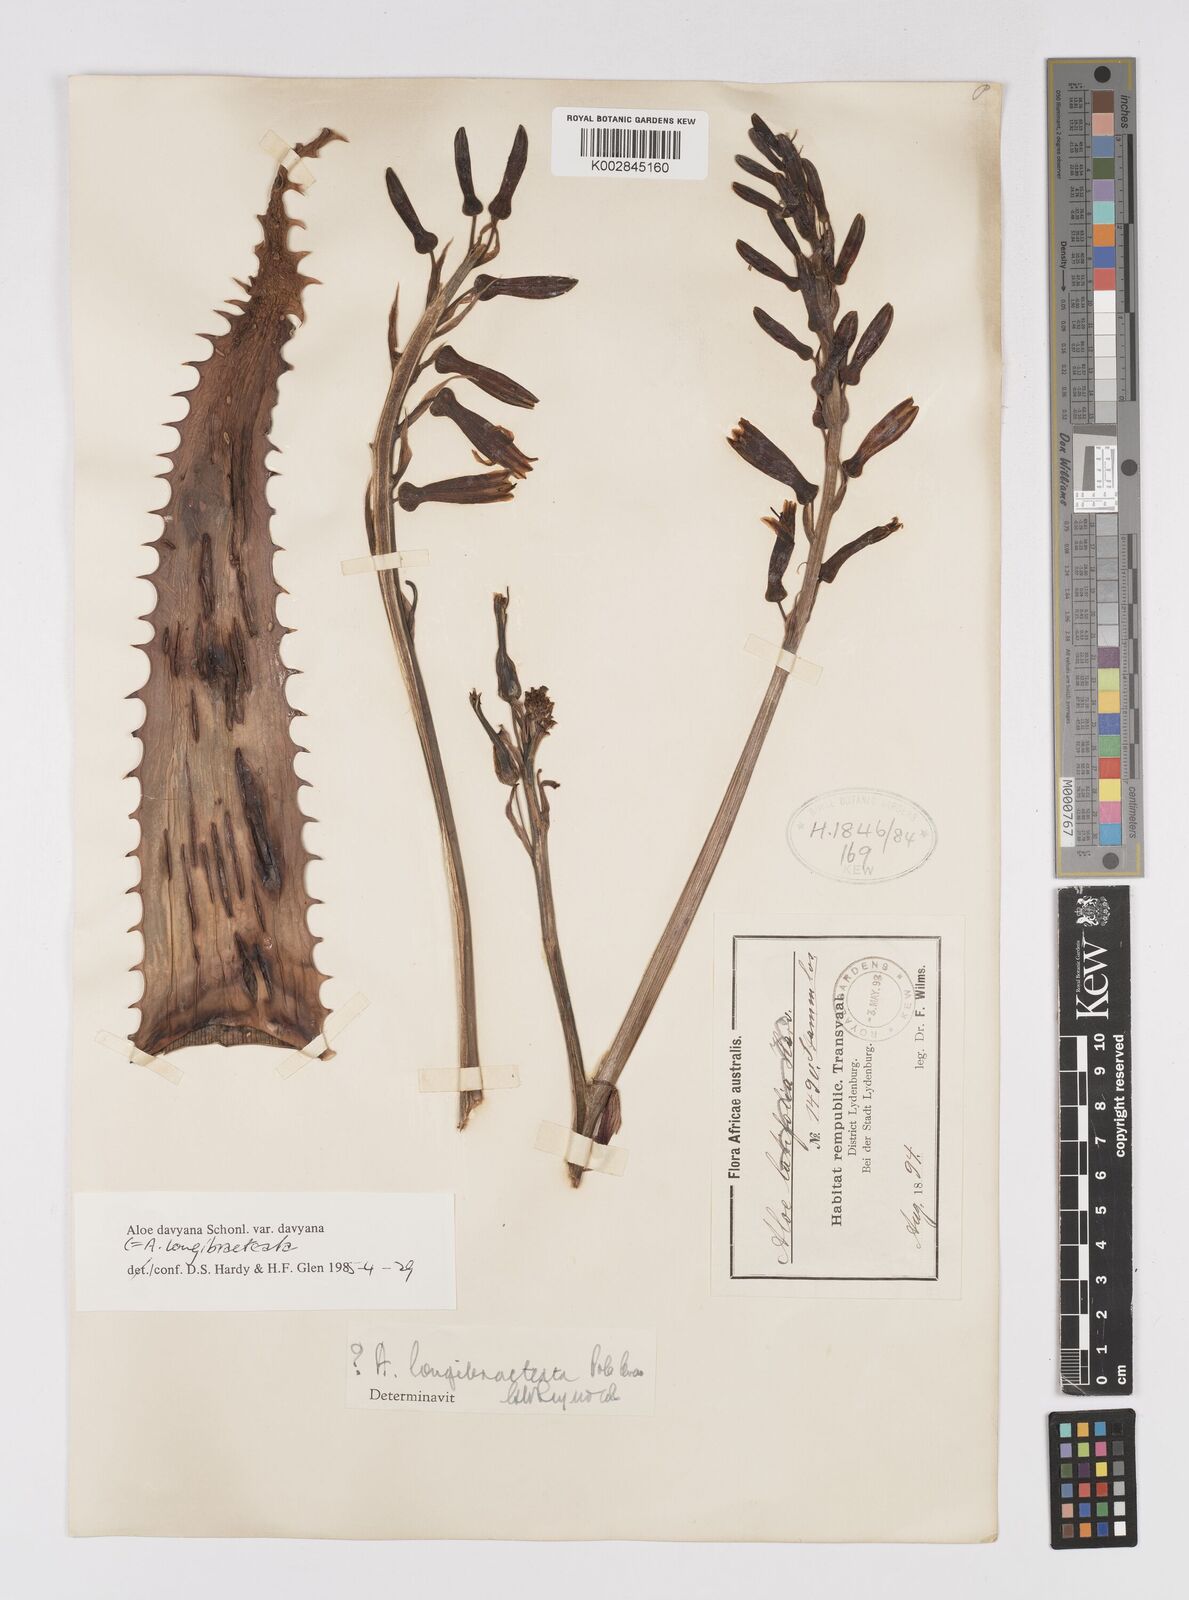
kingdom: Plantae
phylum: Tracheophyta
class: Liliopsida
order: Asparagales
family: Asphodelaceae
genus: Aloe
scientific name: Aloe longibracteata
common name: Limpopo spotted aloe
